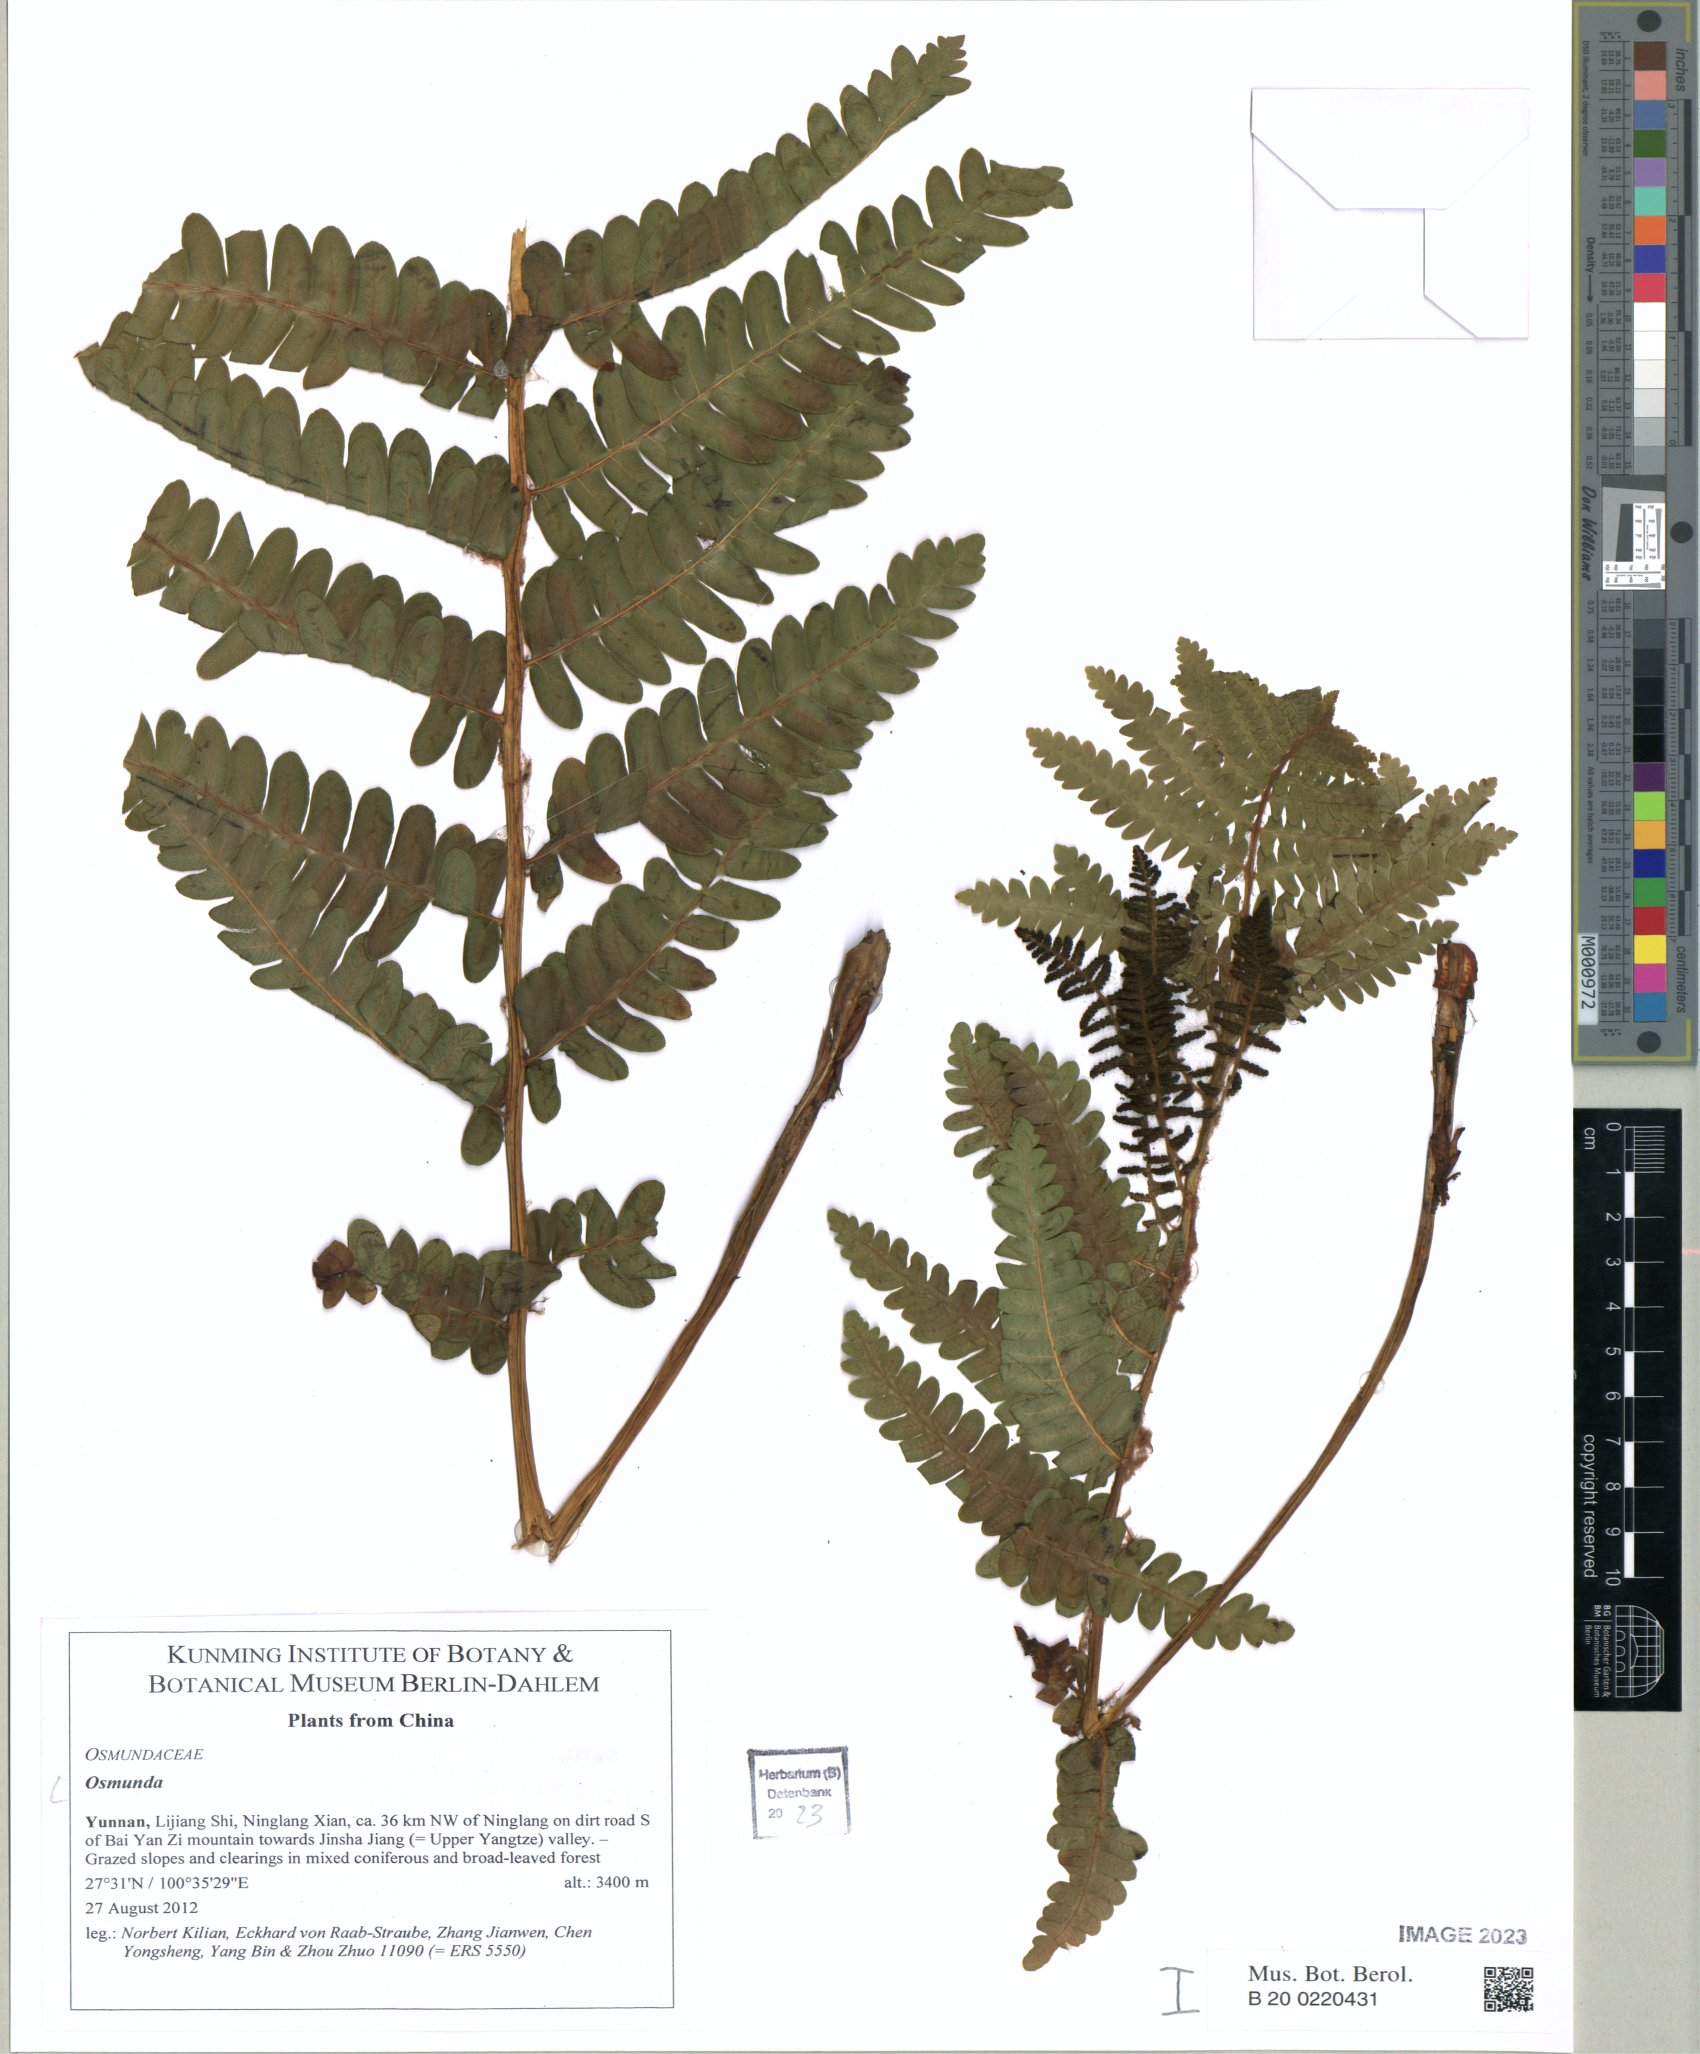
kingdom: Plantae
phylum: Tracheophyta
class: Polypodiopsida
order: Osmundales
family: Osmundaceae
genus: Osmunda
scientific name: Osmunda
